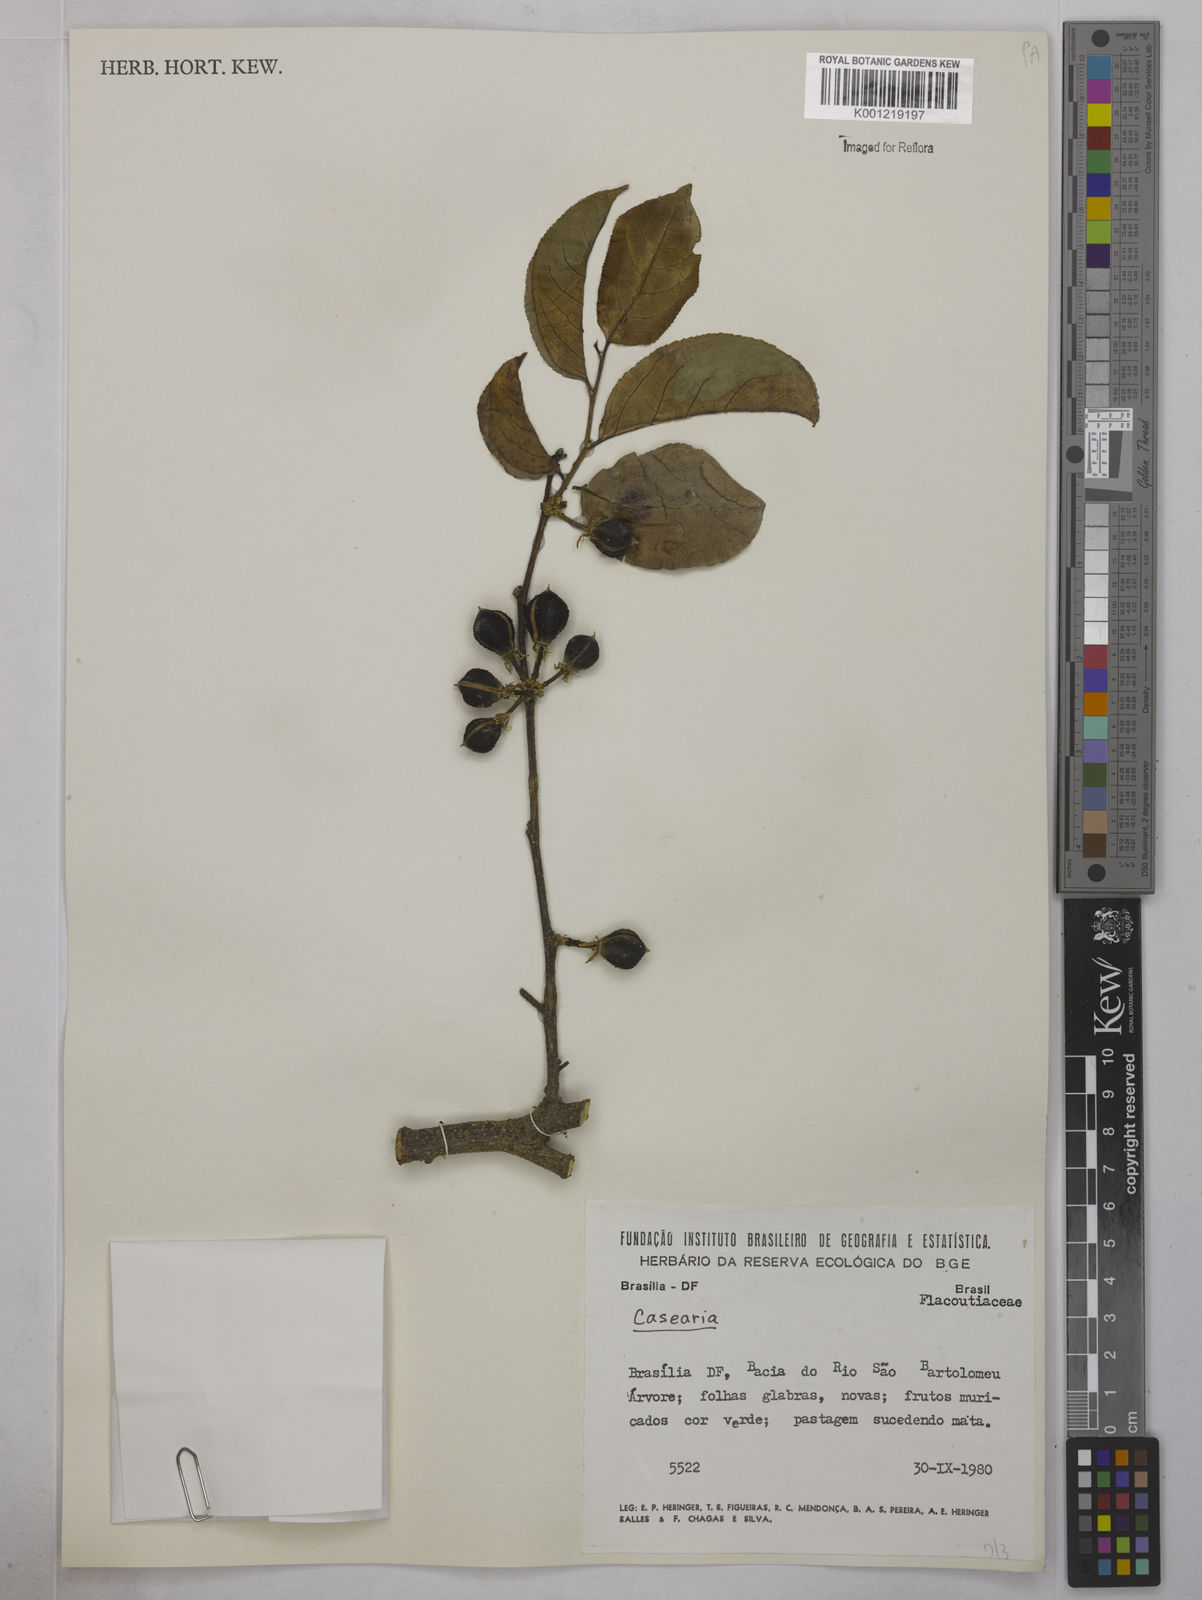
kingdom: Plantae
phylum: Tracheophyta
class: Magnoliopsida
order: Malpighiales
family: Salicaceae
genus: Casearia
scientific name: Casearia
